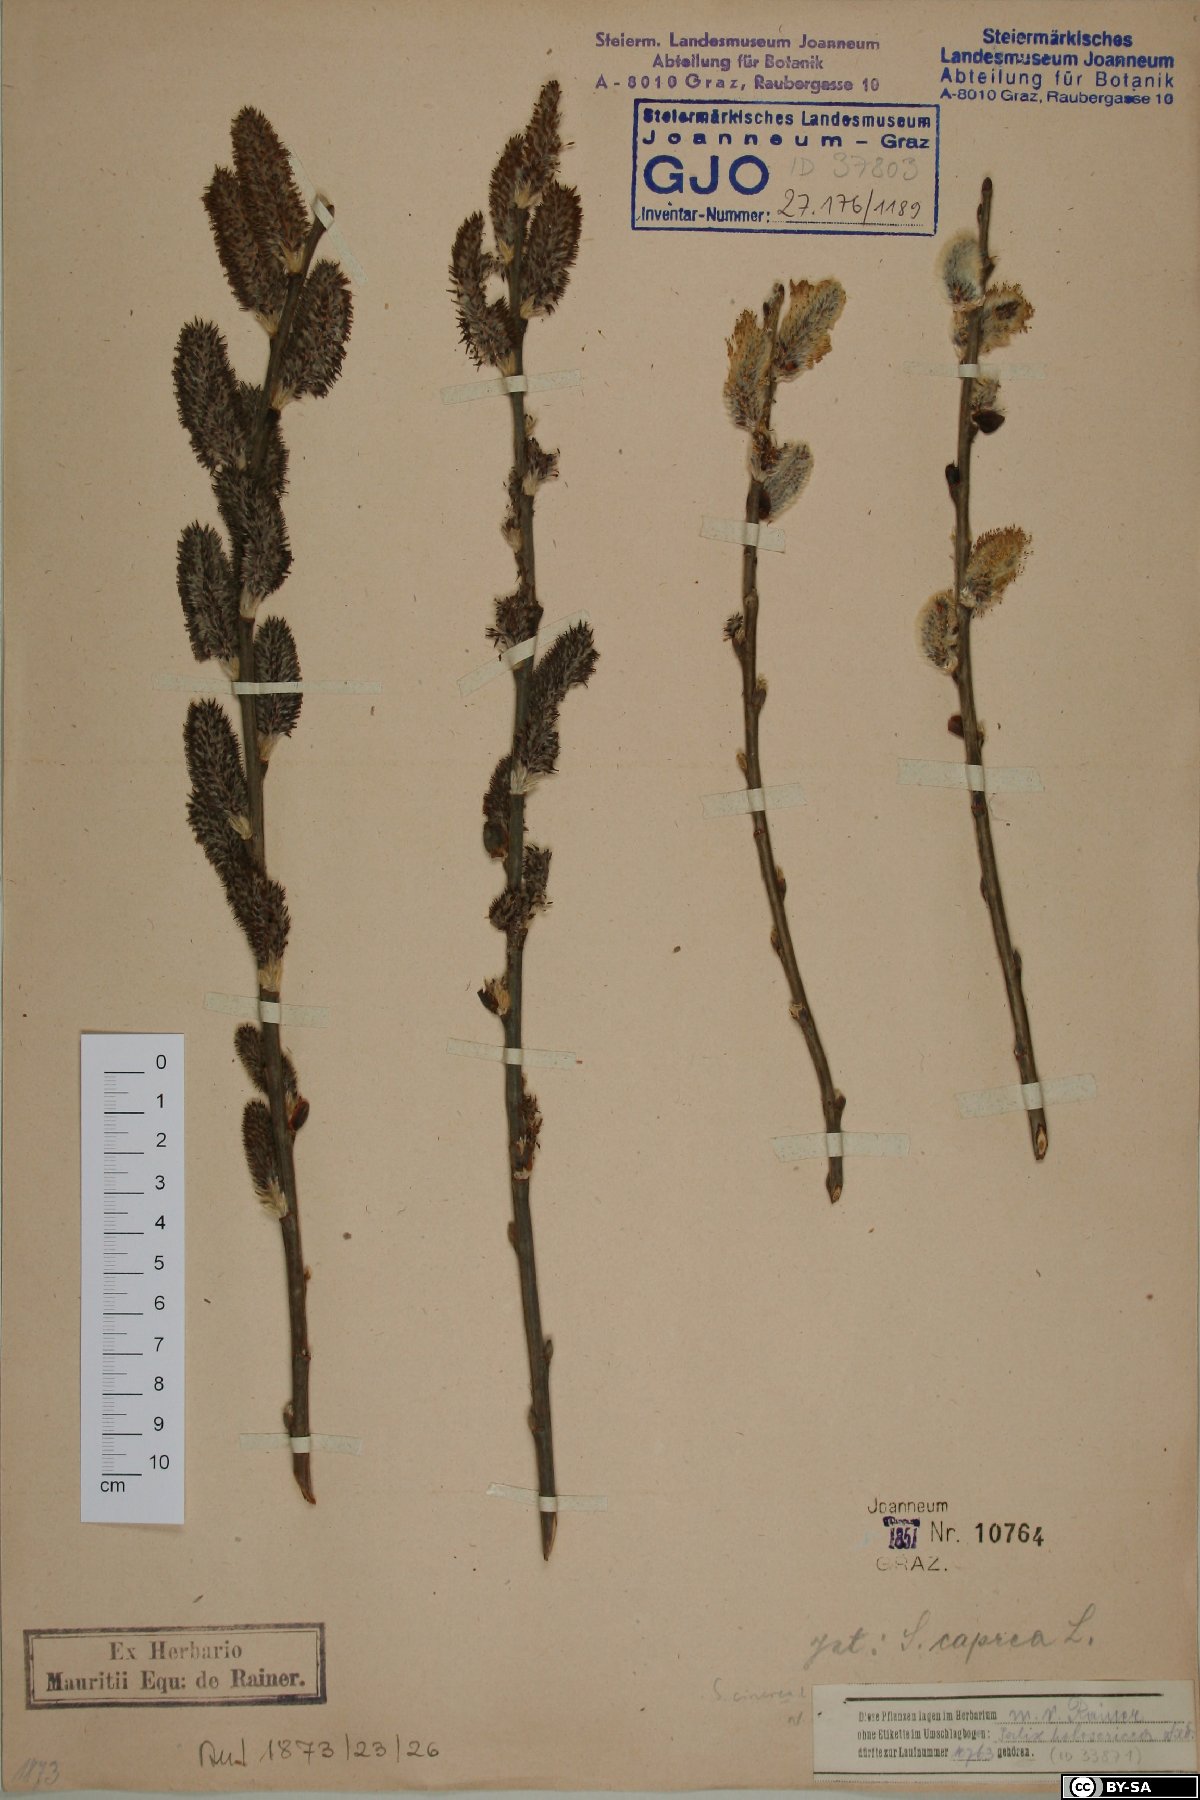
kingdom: Plantae
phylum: Tracheophyta
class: Magnoliopsida
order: Malpighiales
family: Salicaceae
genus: Salix
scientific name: Salix cinerea
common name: Common sallow
